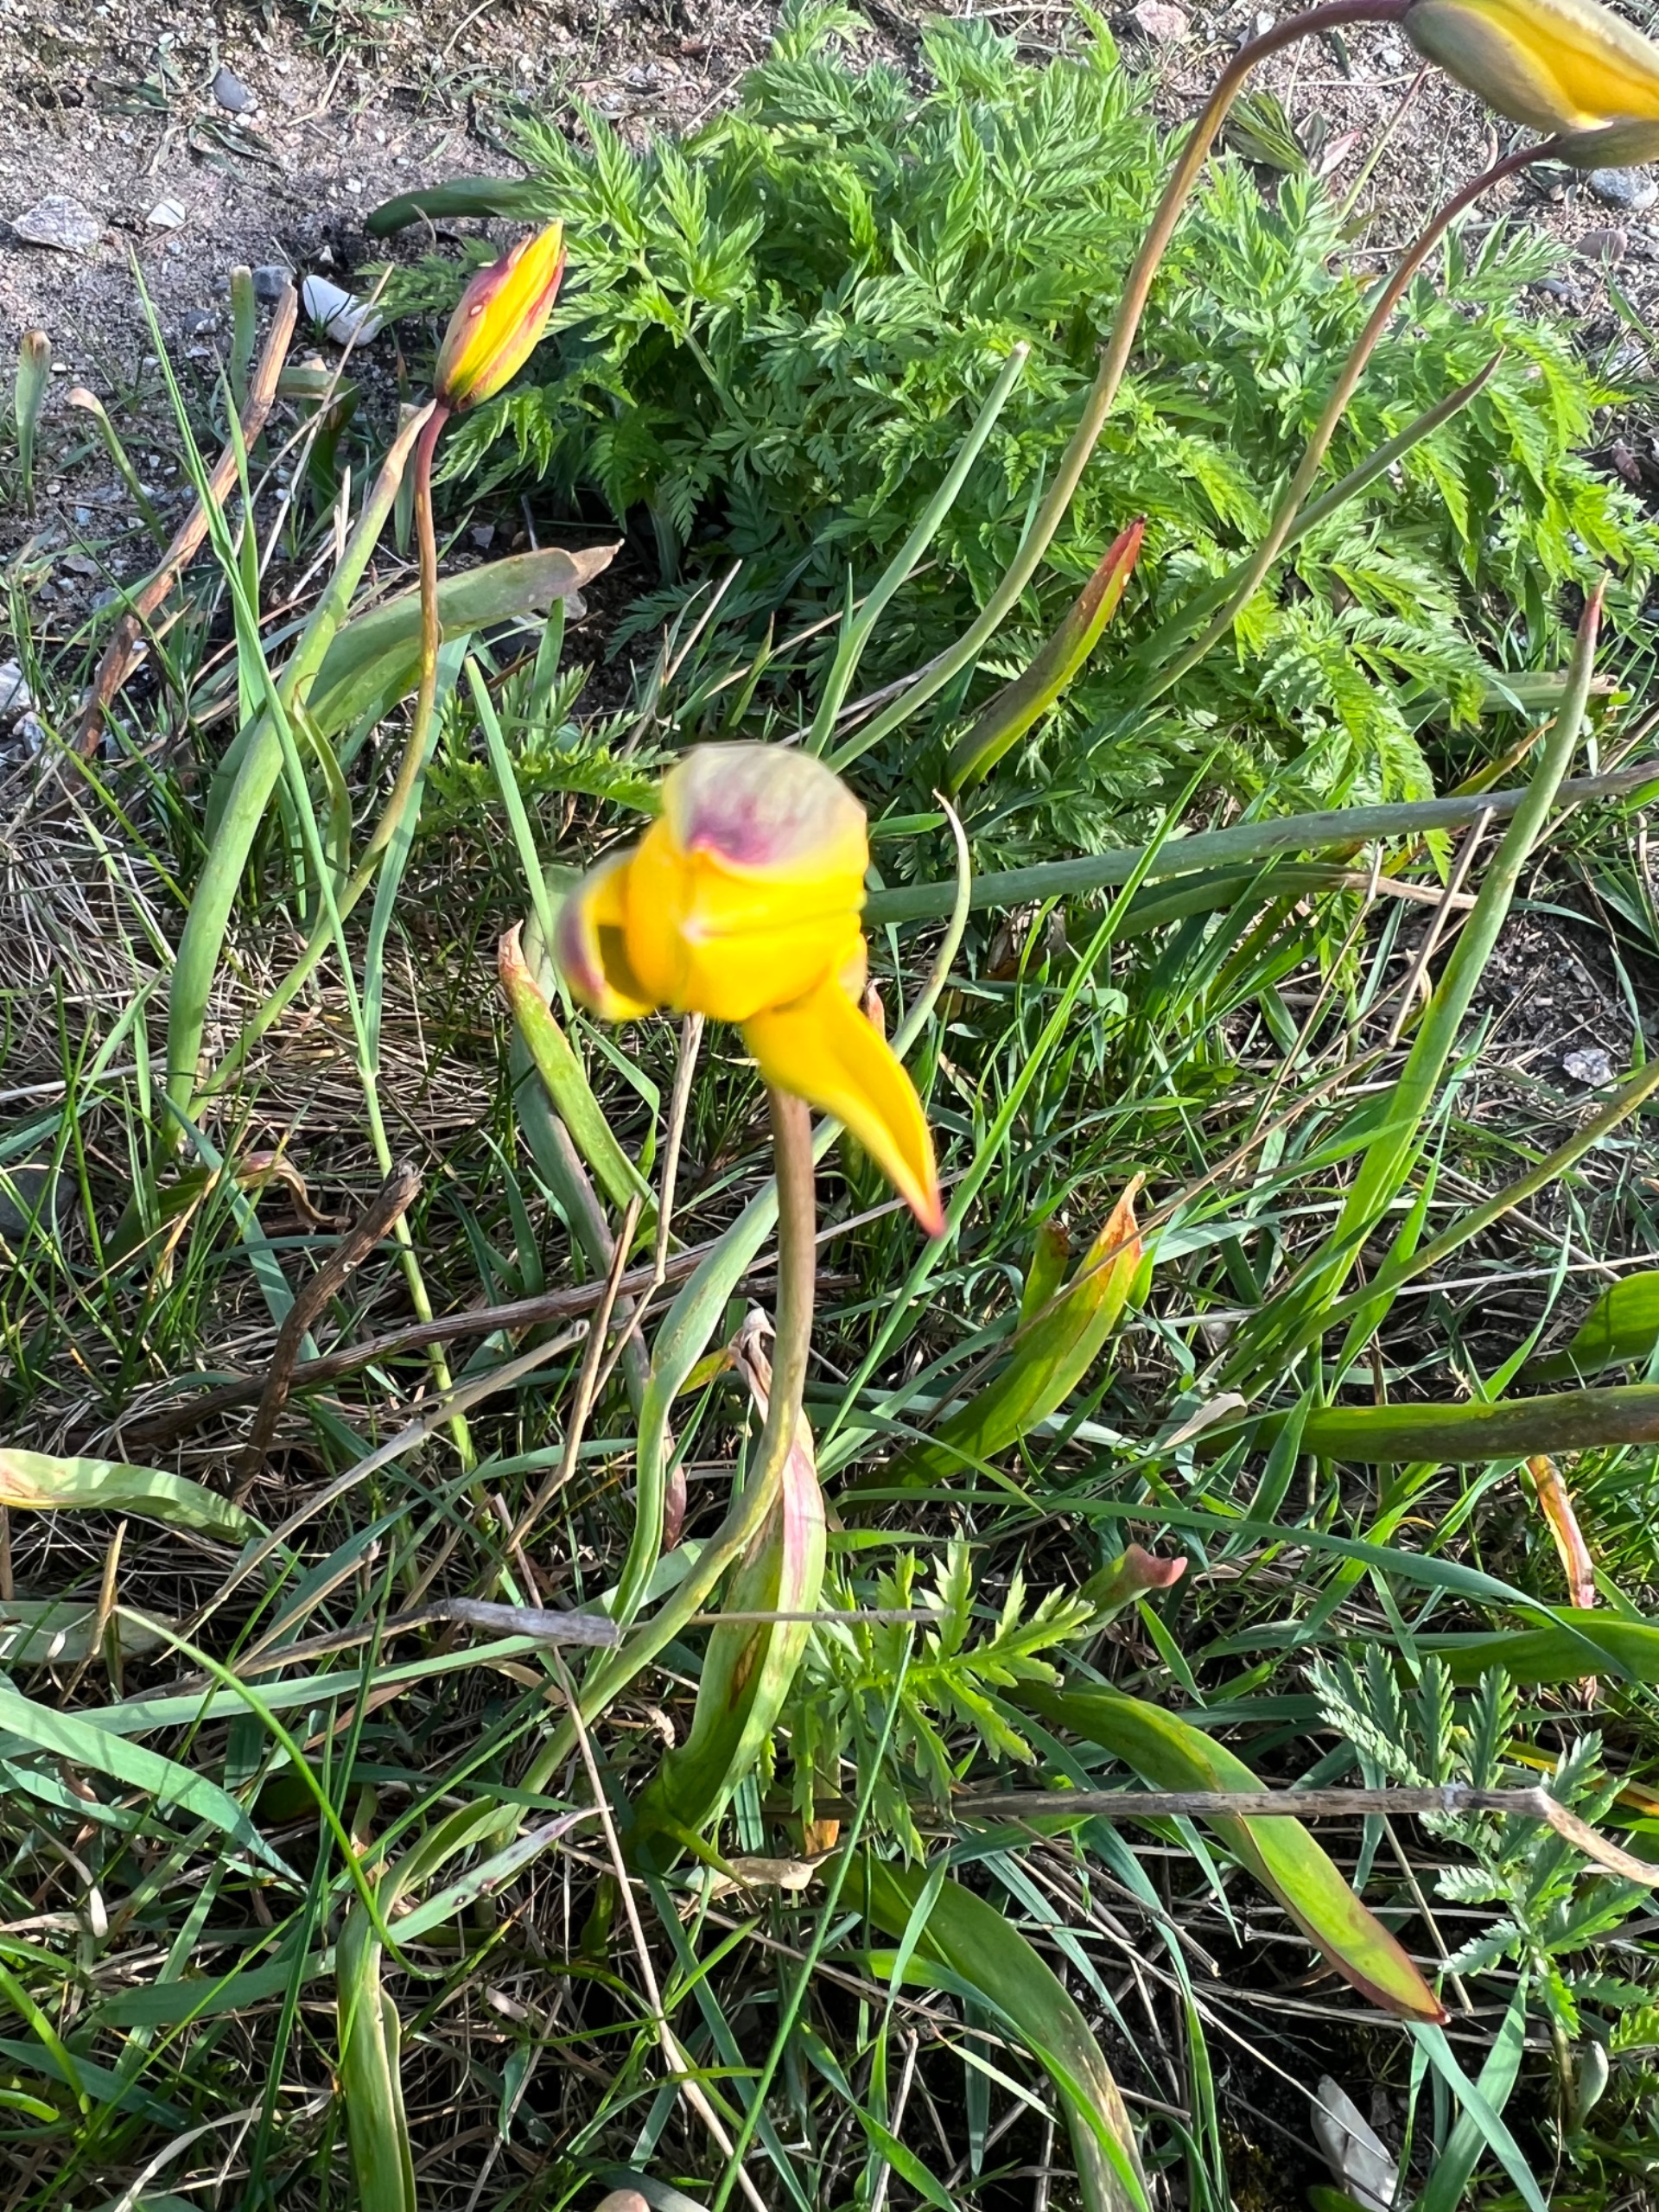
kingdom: Plantae
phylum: Tracheophyta
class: Liliopsida
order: Liliales
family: Liliaceae
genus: Tulipa
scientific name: Tulipa sylvestris
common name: Vild tulipan
